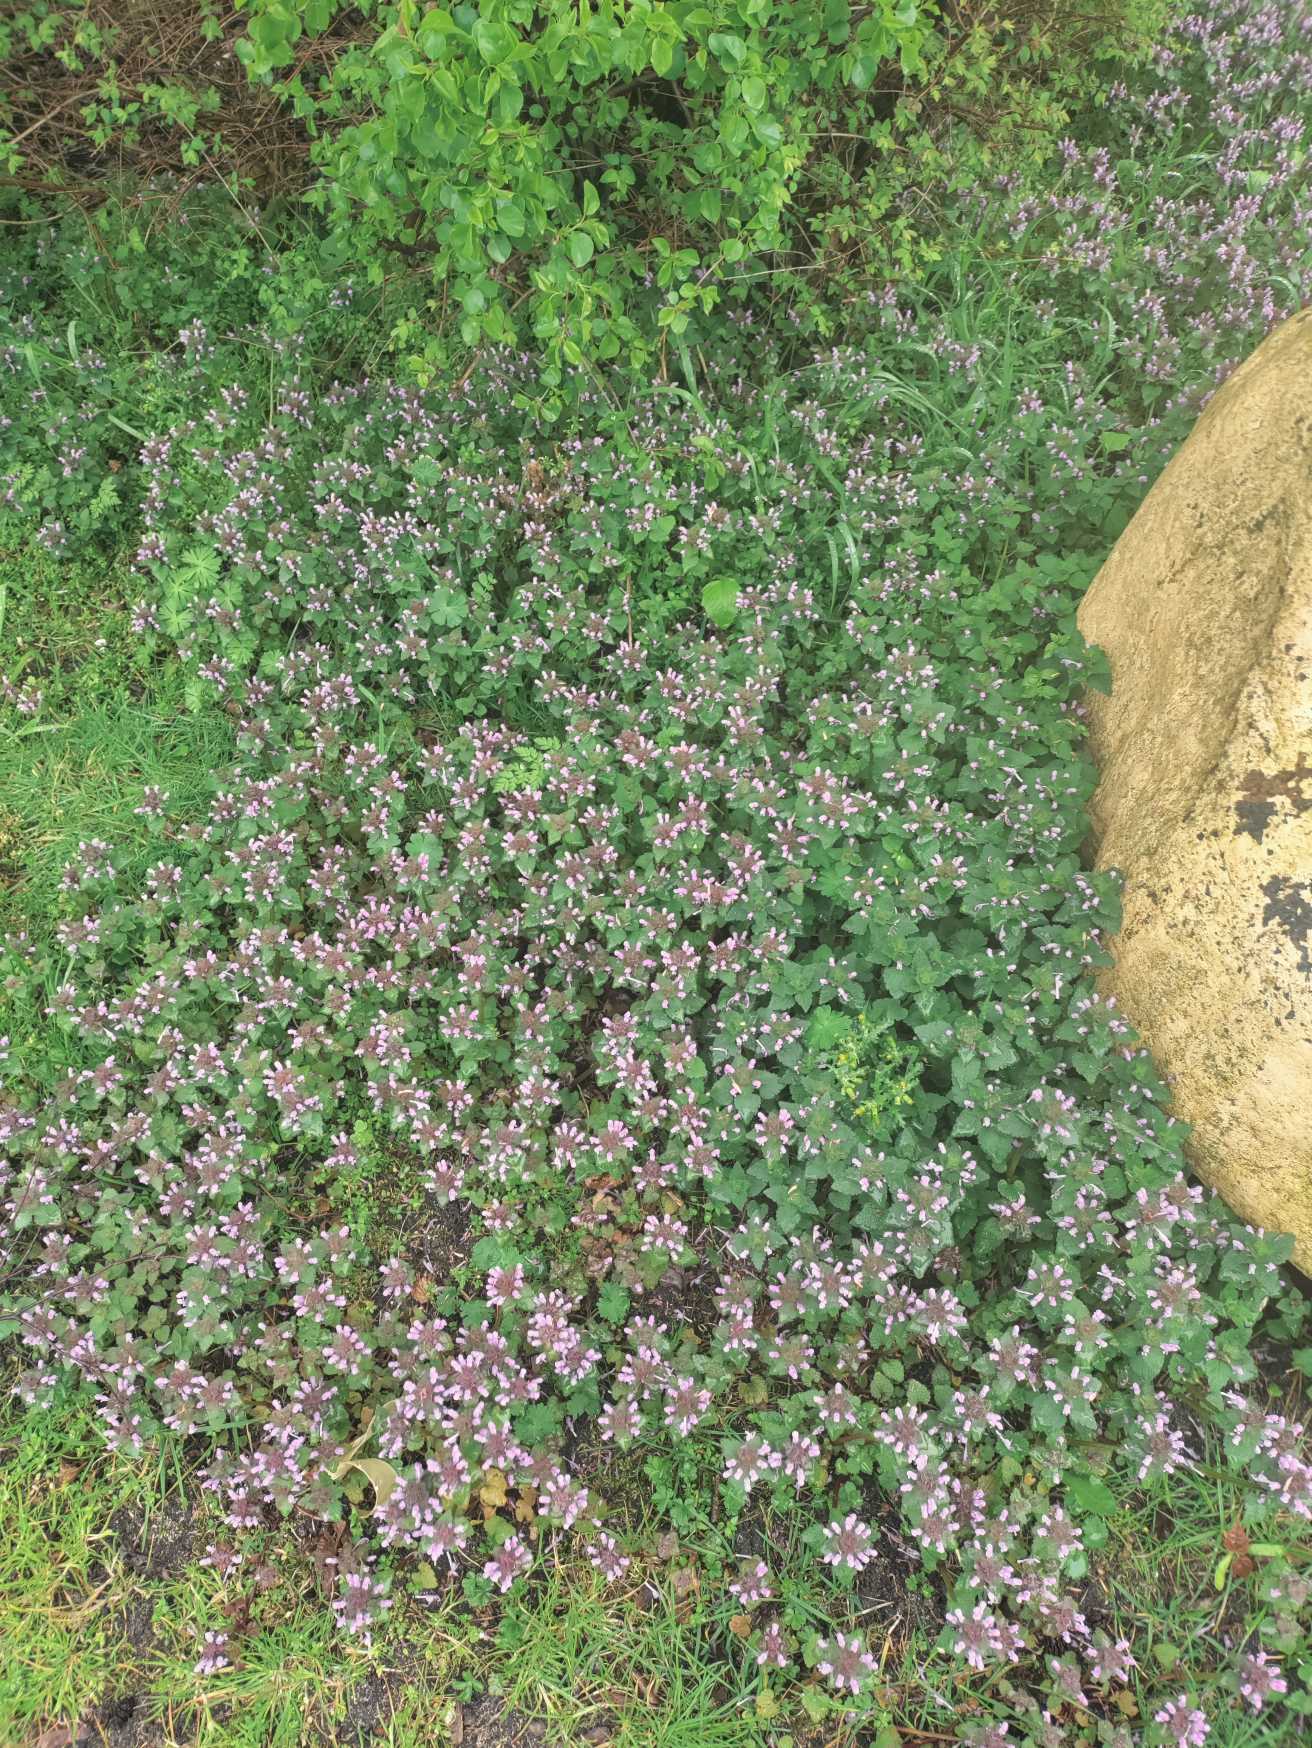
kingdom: Plantae
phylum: Tracheophyta
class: Magnoliopsida
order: Lamiales
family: Lamiaceae
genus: Lamium
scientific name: Lamium purpureum
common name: Rød tvetand
